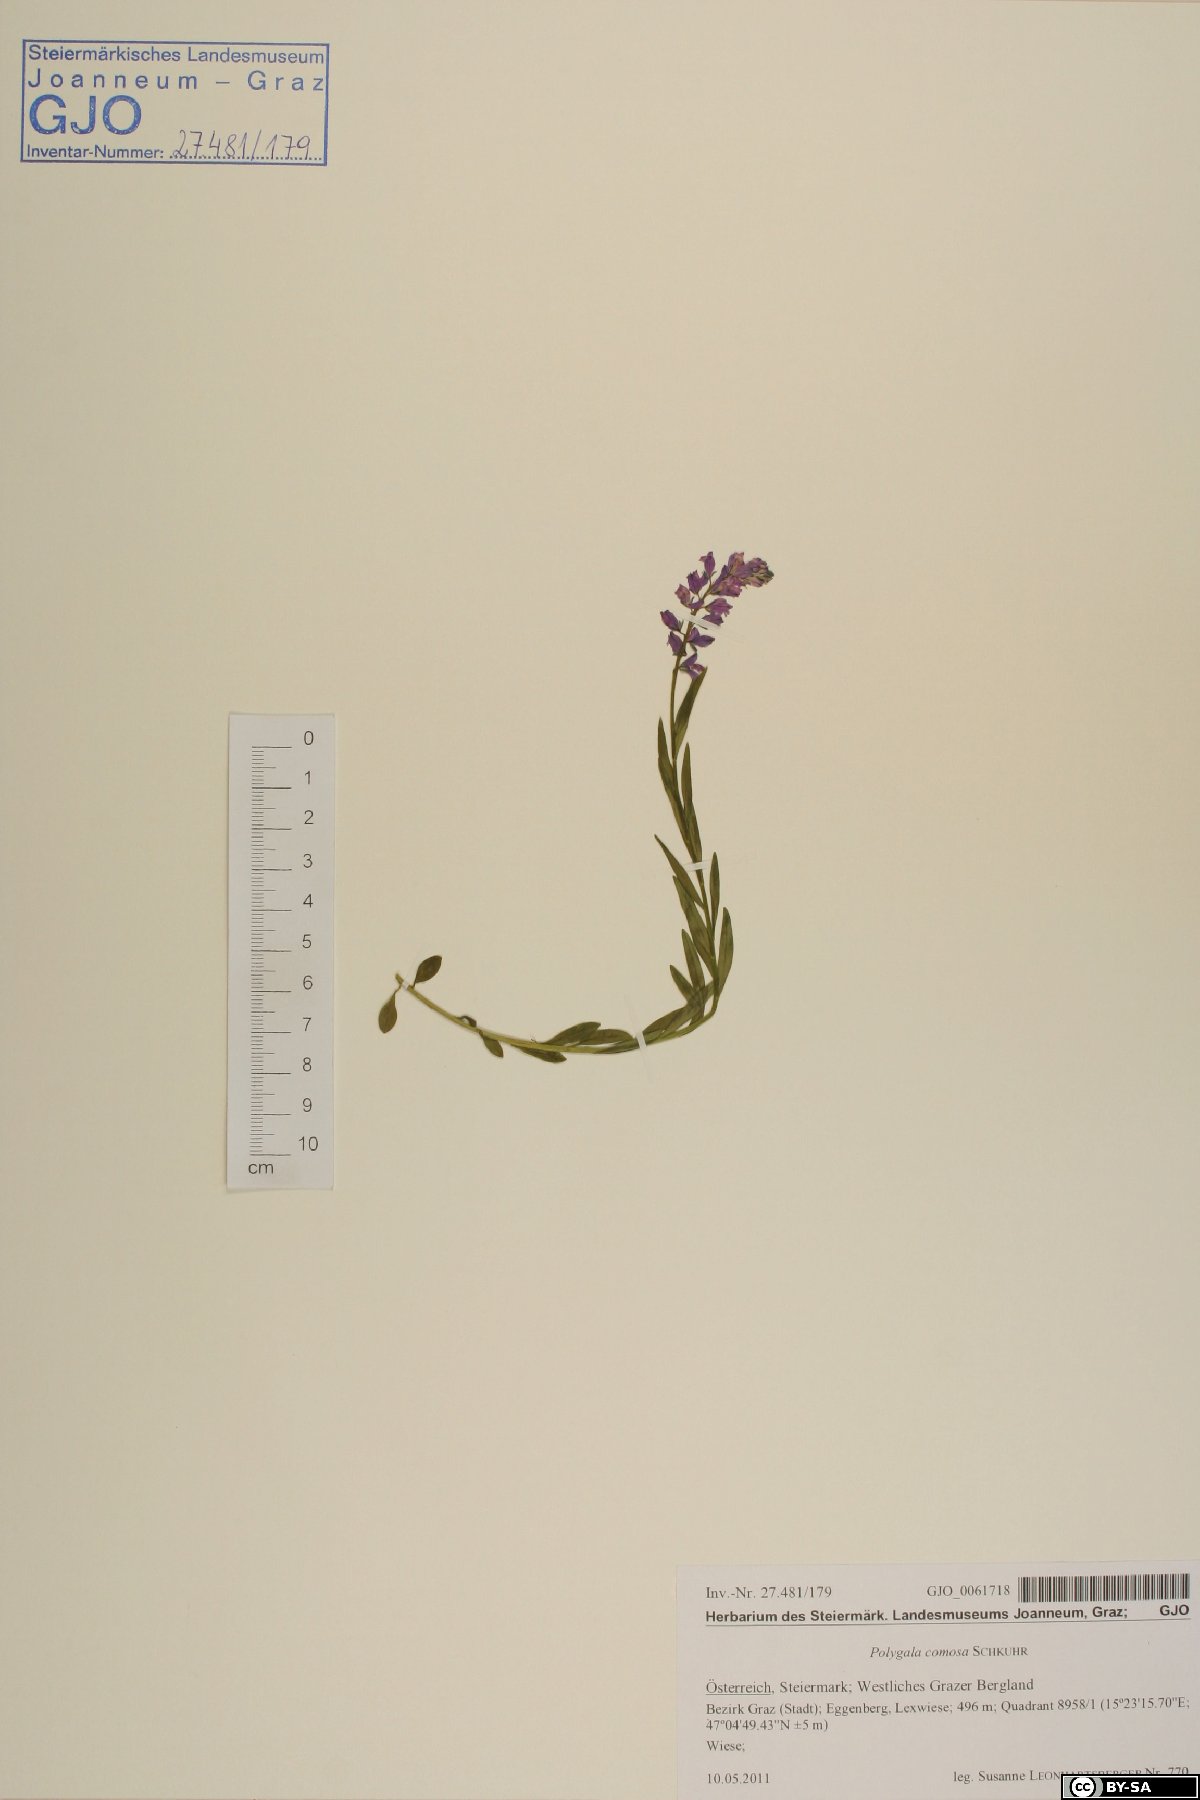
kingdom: Plantae
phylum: Tracheophyta
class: Magnoliopsida
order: Fabales
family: Polygalaceae
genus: Polygala
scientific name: Polygala comosa
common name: Tufted milkwort
